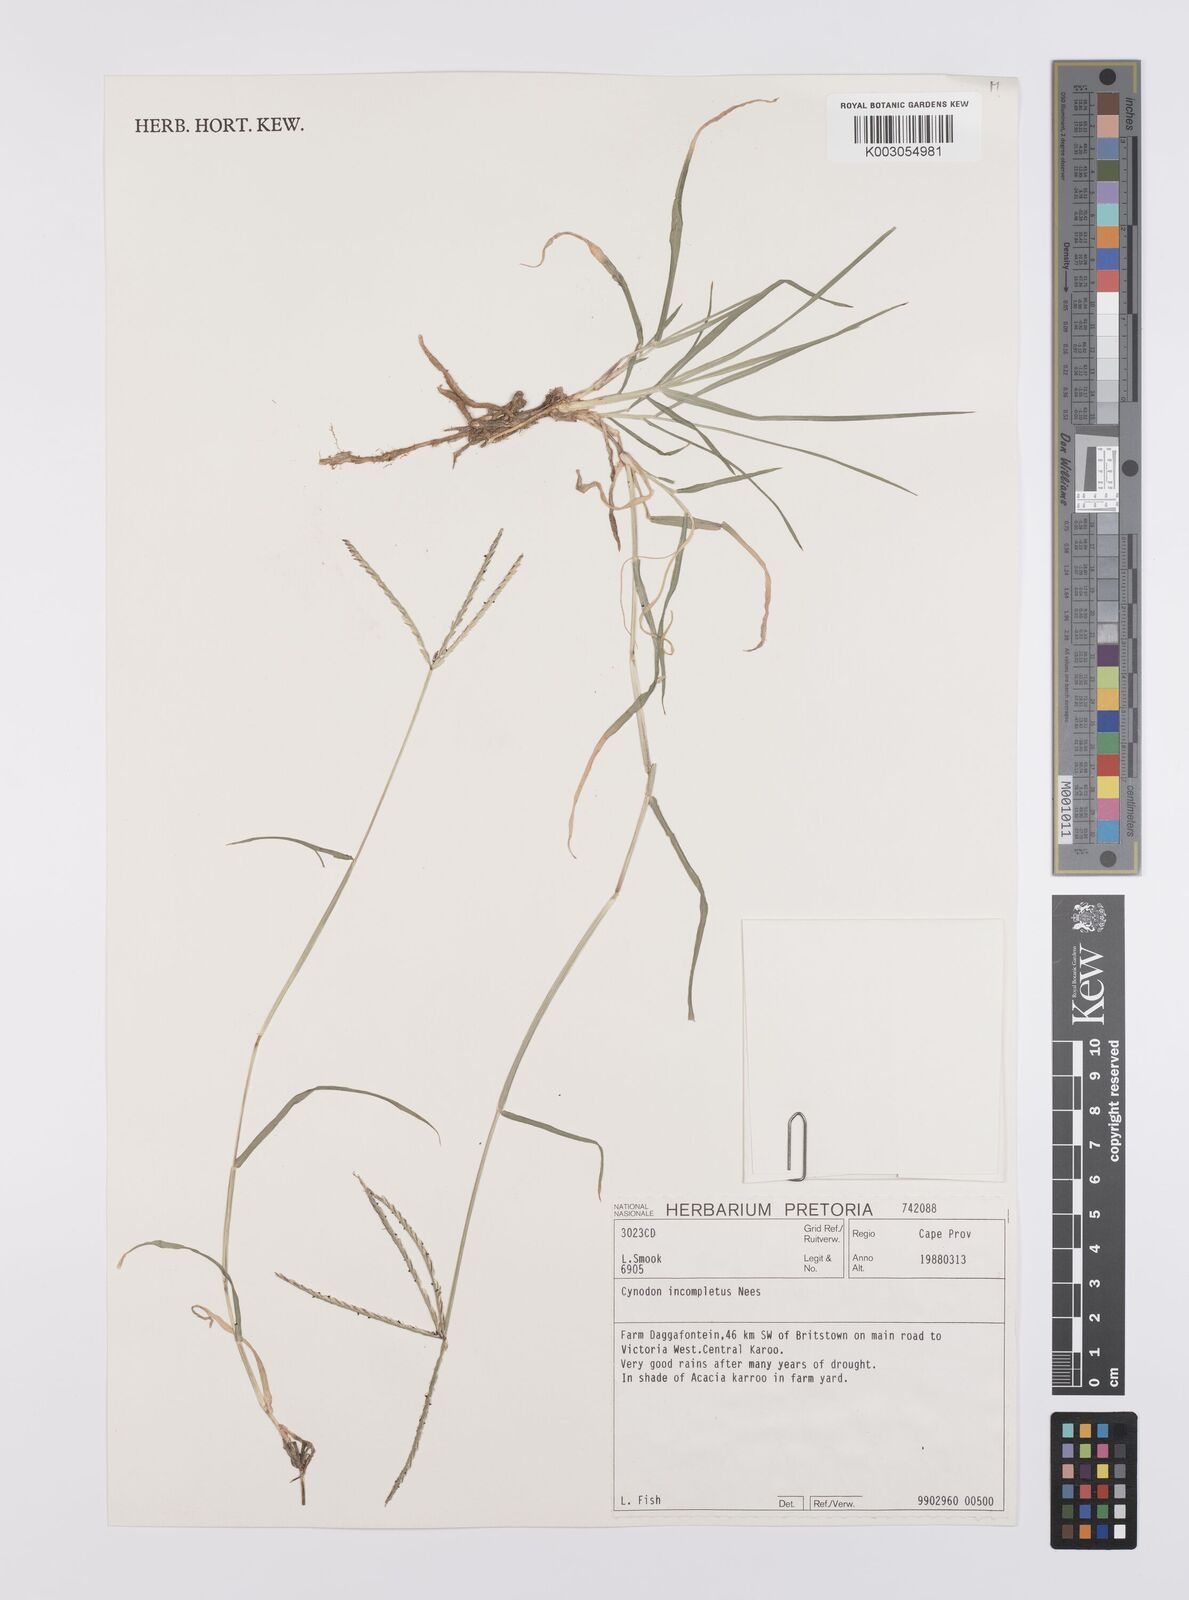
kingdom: Plantae
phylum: Tracheophyta
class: Liliopsida
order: Poales
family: Poaceae
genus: Cynodon
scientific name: Cynodon incompletus
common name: African bermuda-grass
